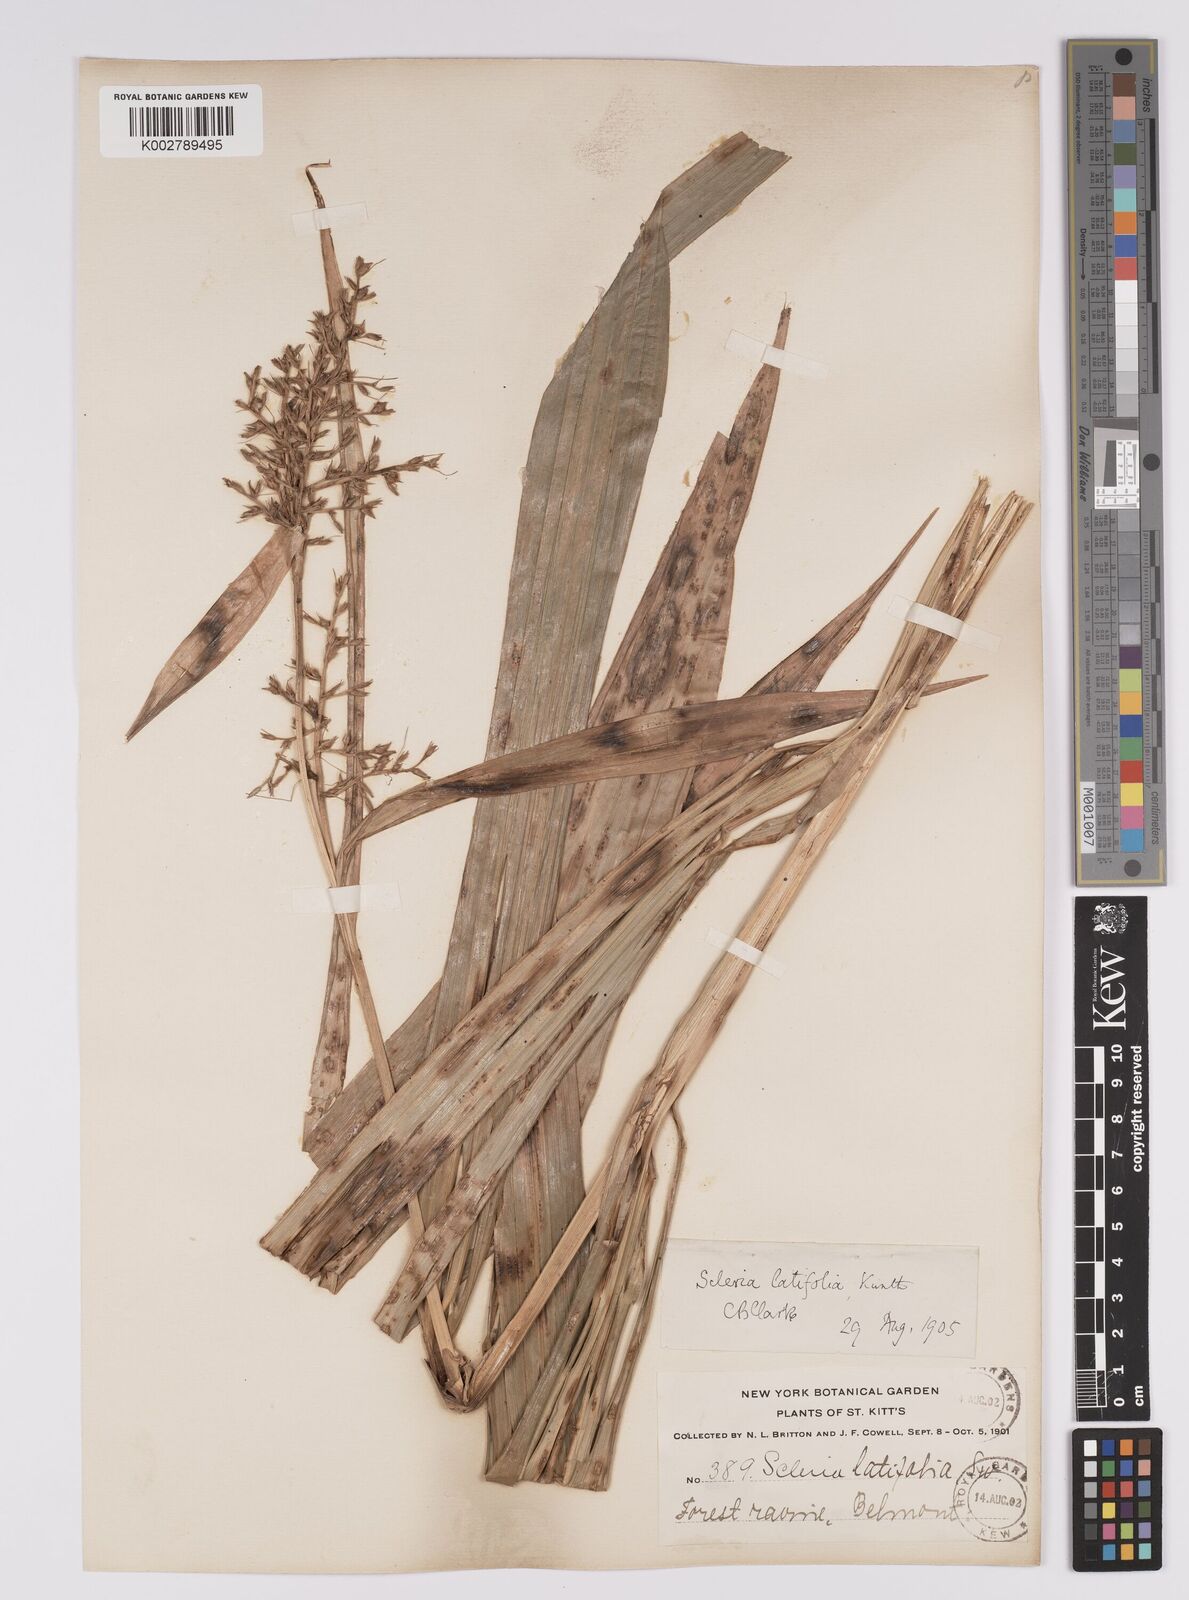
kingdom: Plantae
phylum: Tracheophyta
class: Liliopsida
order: Poales
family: Cyperaceae
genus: Scleria
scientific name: Scleria latifolia
